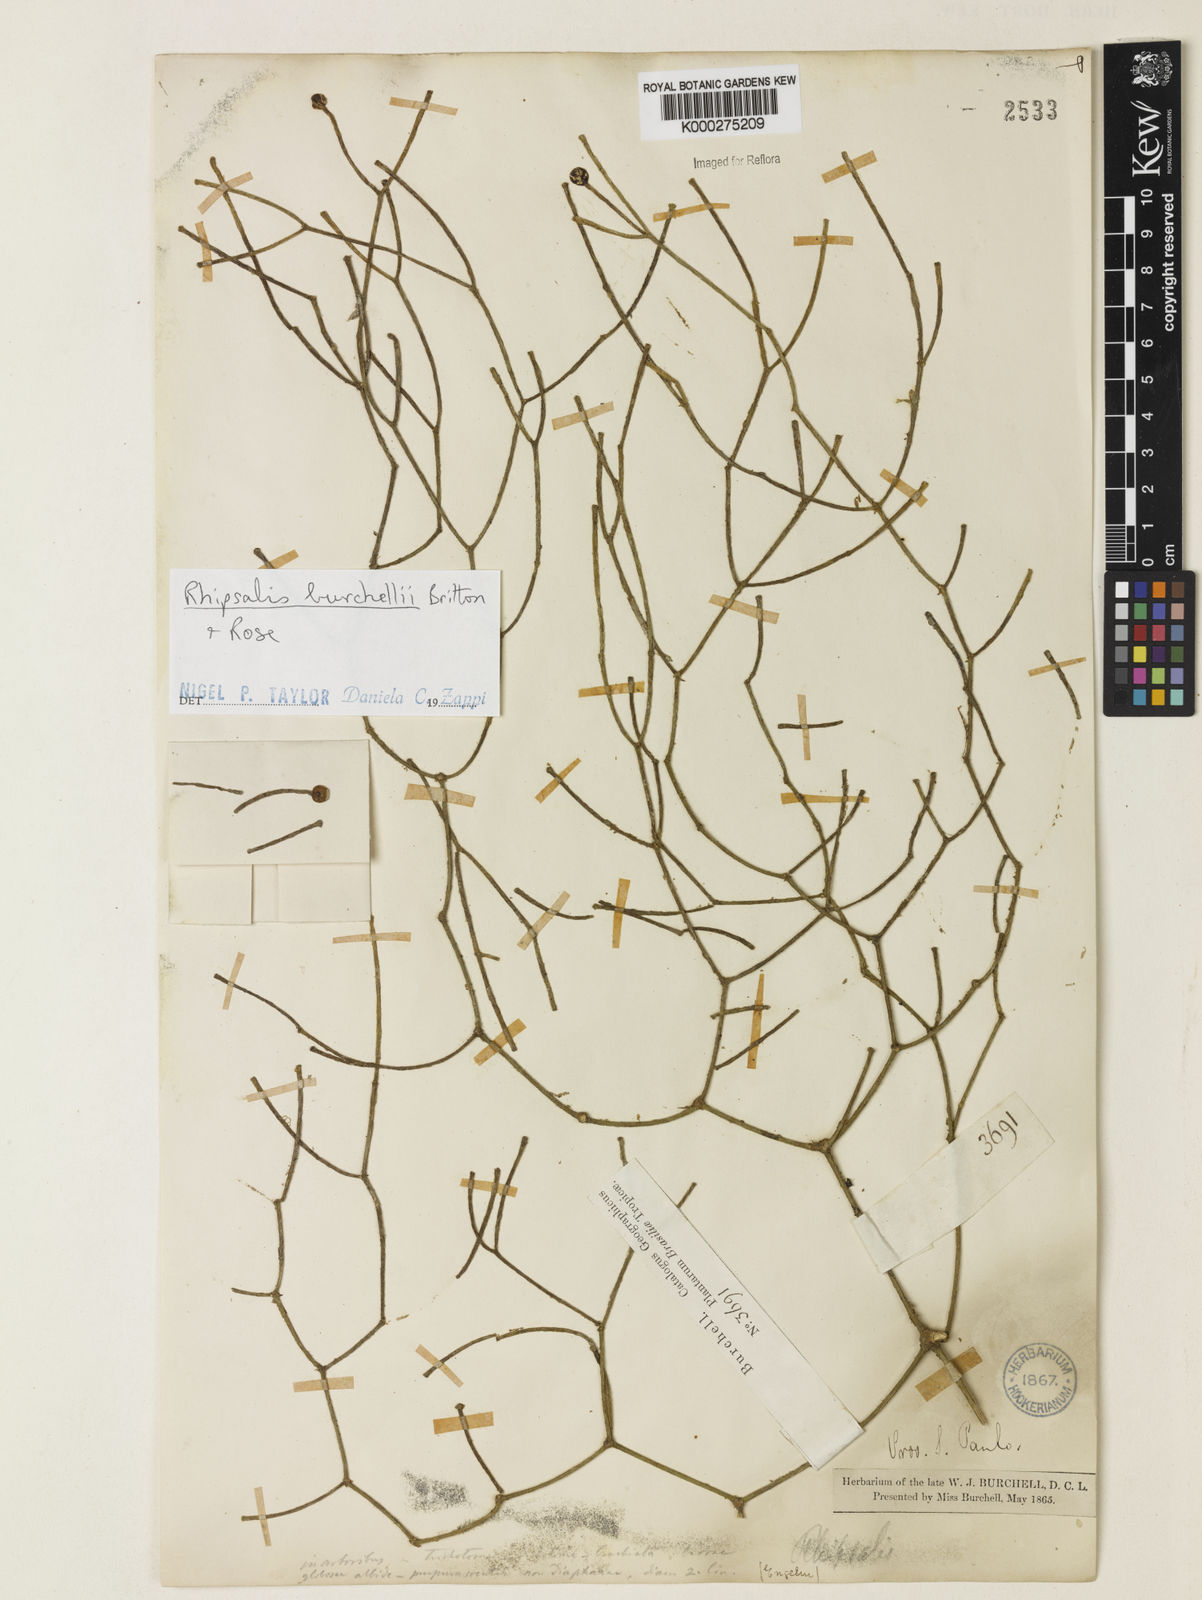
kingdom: Plantae
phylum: Tracheophyta
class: Magnoliopsida
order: Caryophyllales
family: Cactaceae
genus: Rhipsalis
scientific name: Rhipsalis burchellii
